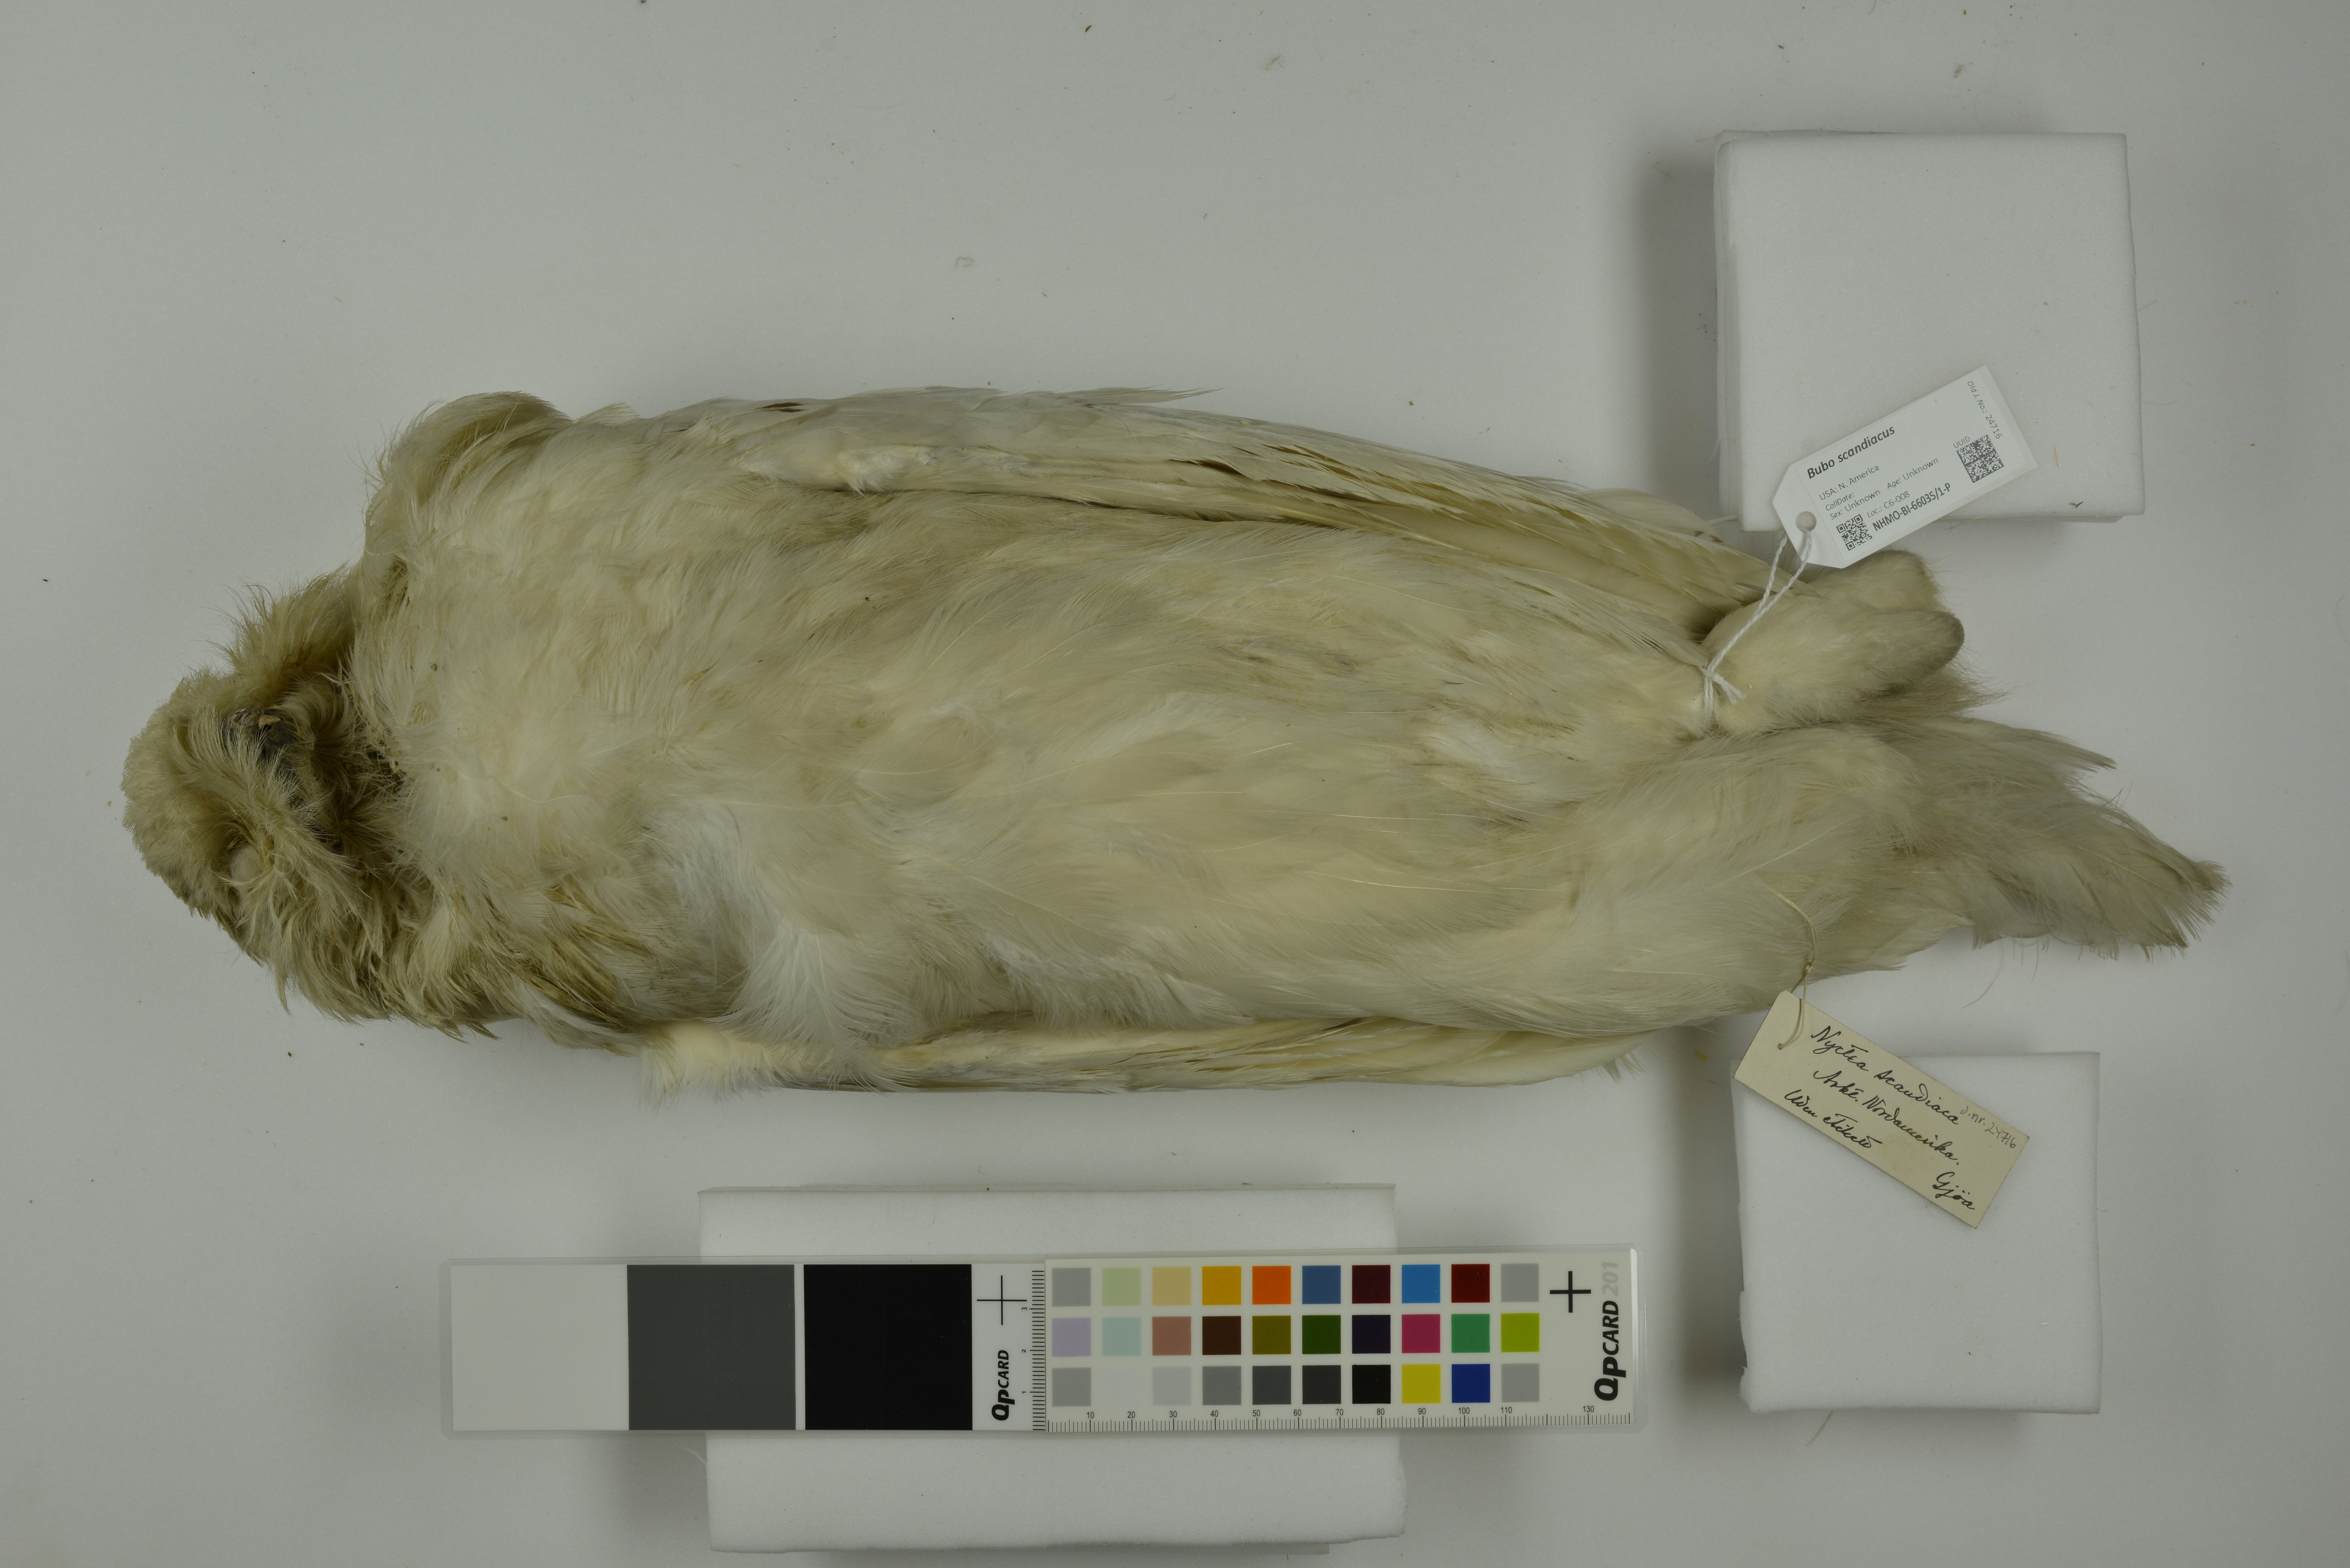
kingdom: Animalia
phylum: Chordata
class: Aves
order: Strigiformes
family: Strigidae
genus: Bubo
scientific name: Bubo scandiacus
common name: Snowy owl
